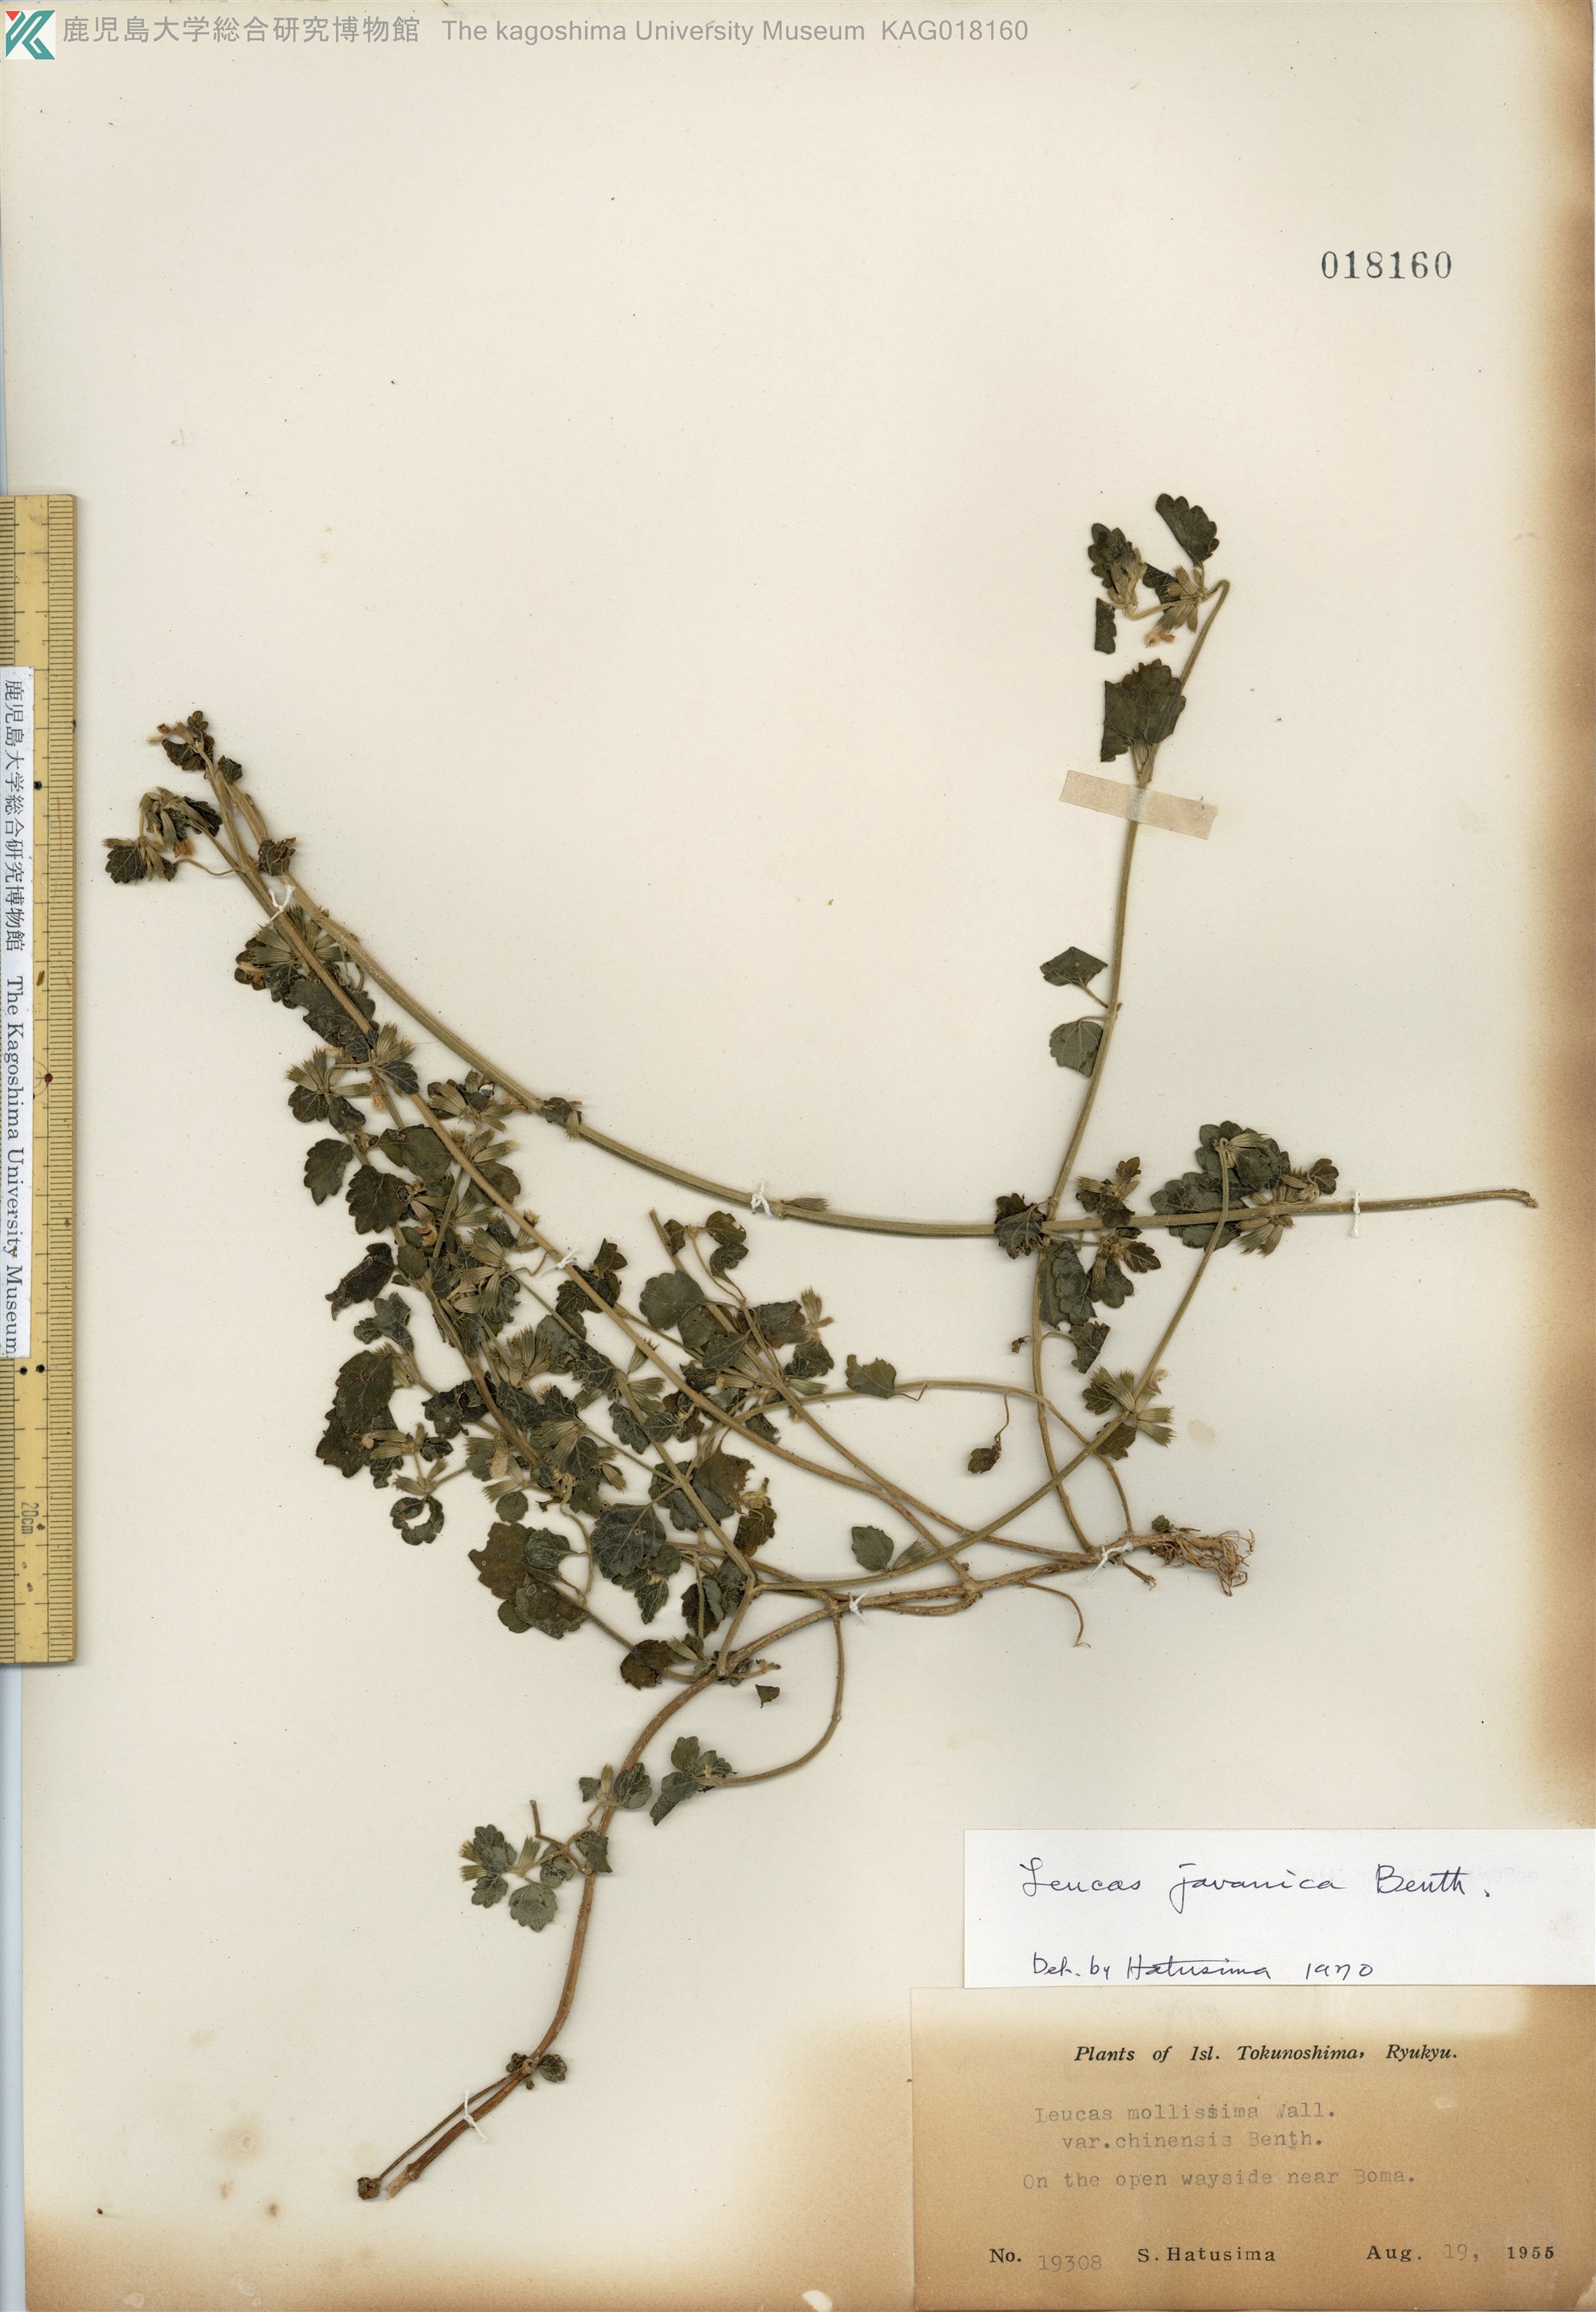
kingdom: Plantae
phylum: Tracheophyta
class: Magnoliopsida
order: Lamiales
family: Lamiaceae
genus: Leucas
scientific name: Leucas chinensis
